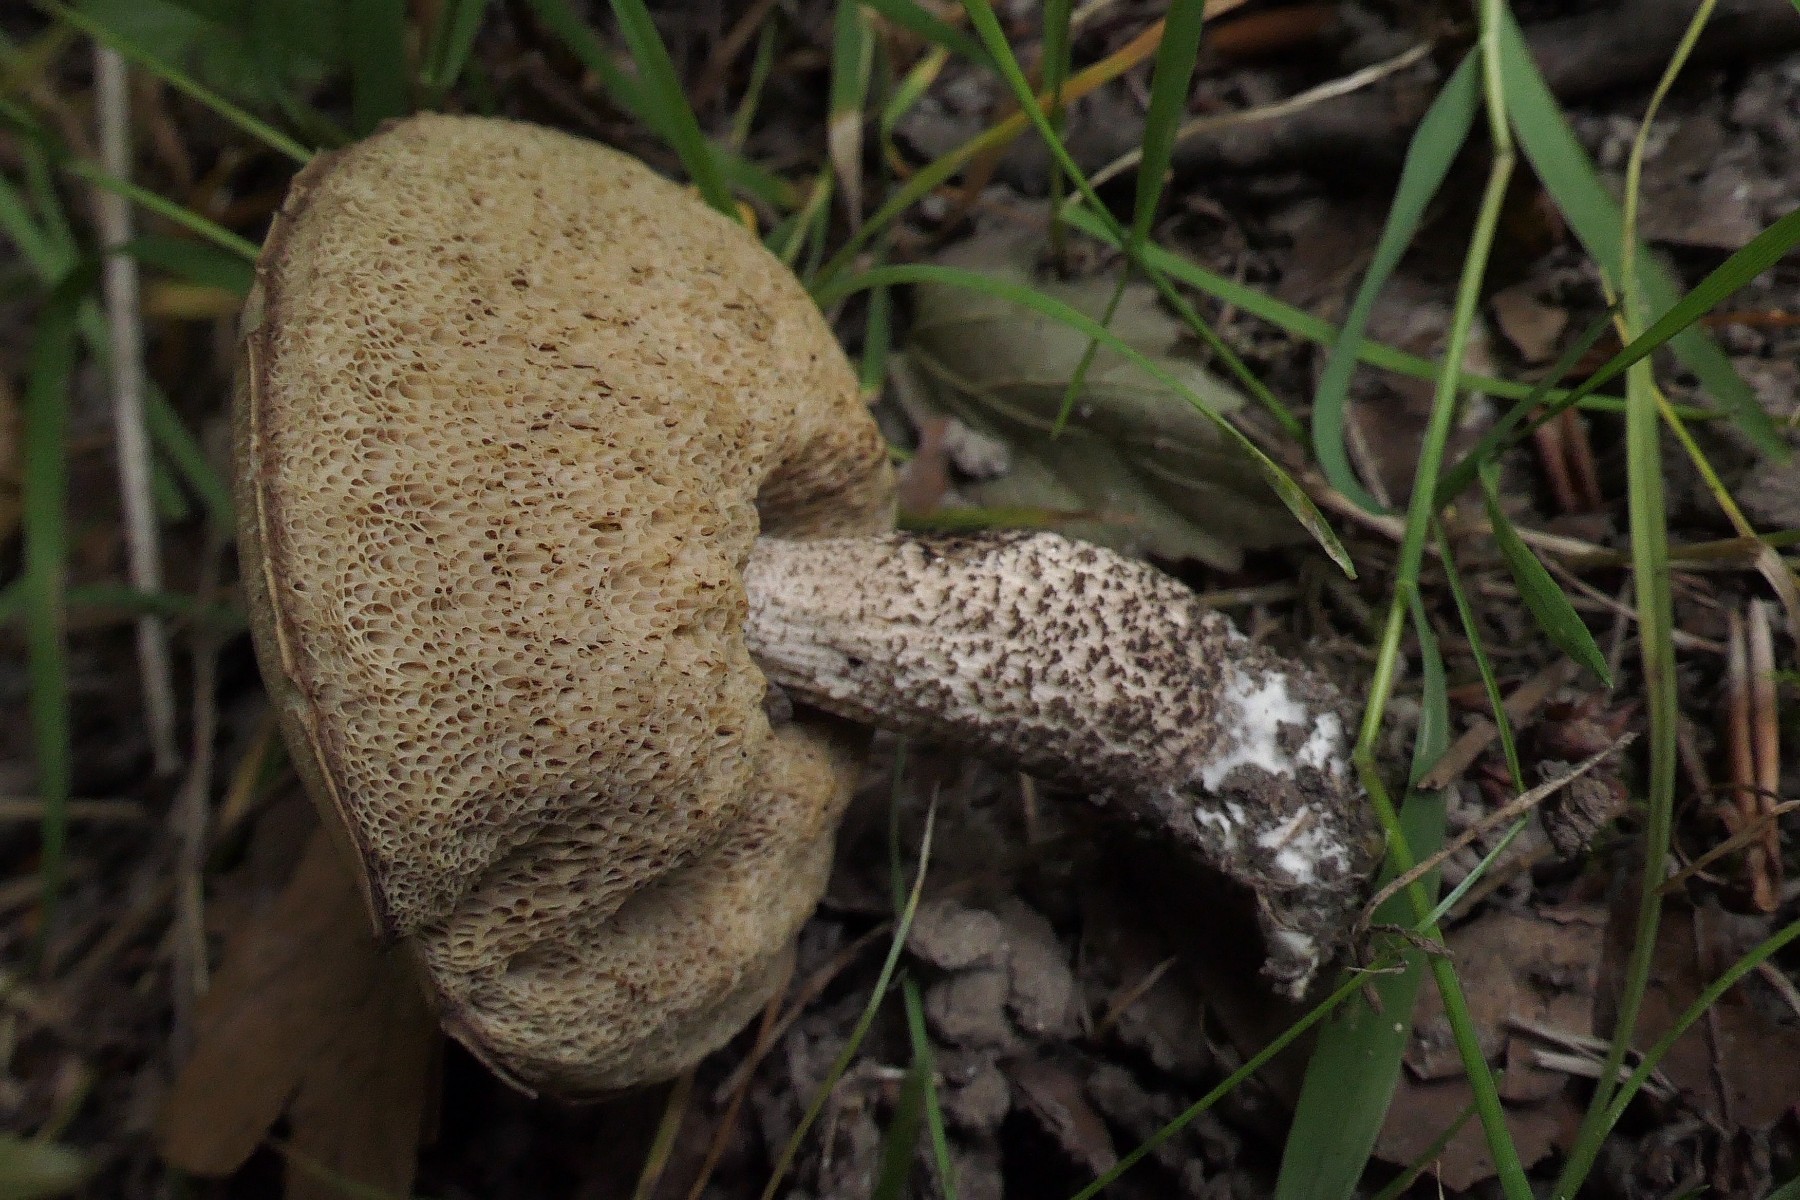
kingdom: Fungi
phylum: Basidiomycota
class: Agaricomycetes
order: Boletales
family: Boletaceae
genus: Leccinellum
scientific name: Leccinellum pseudoscabrum
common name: avnbøg-skælrørhat
